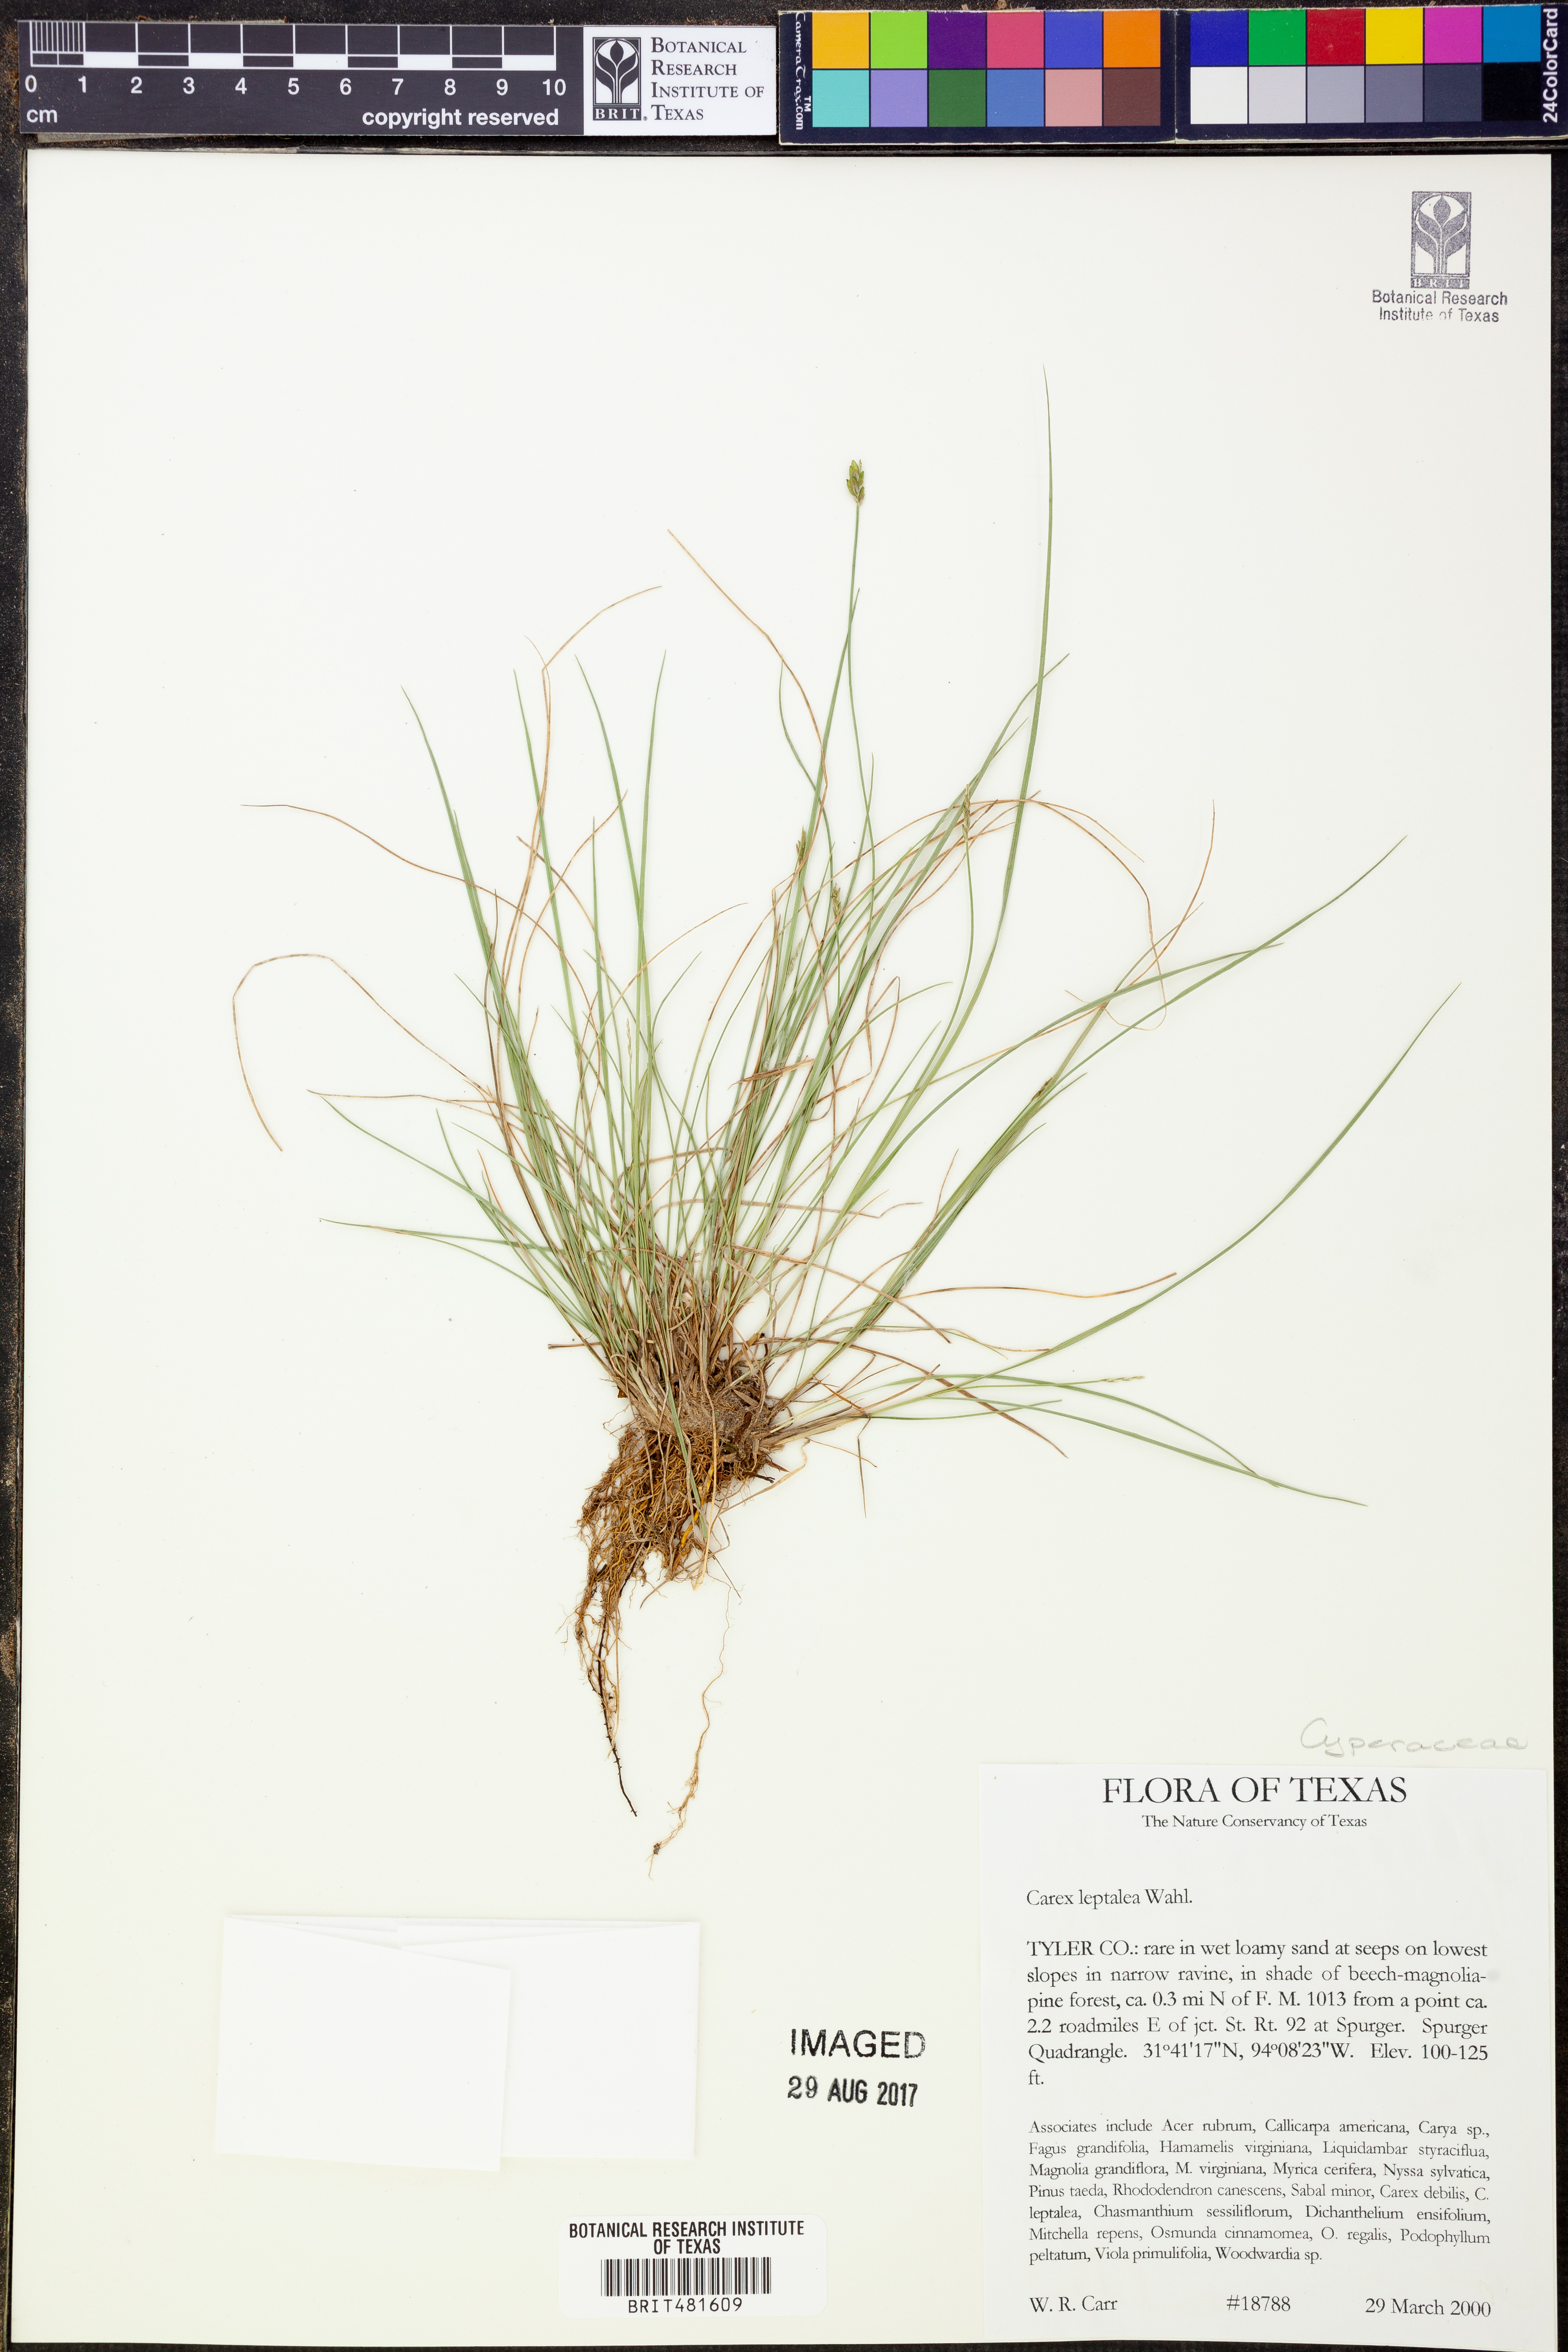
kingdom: Plantae
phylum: Tracheophyta
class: Liliopsida
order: Poales
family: Cyperaceae
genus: Carex
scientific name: Carex leptalea
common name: Bristly-stalked sedge
